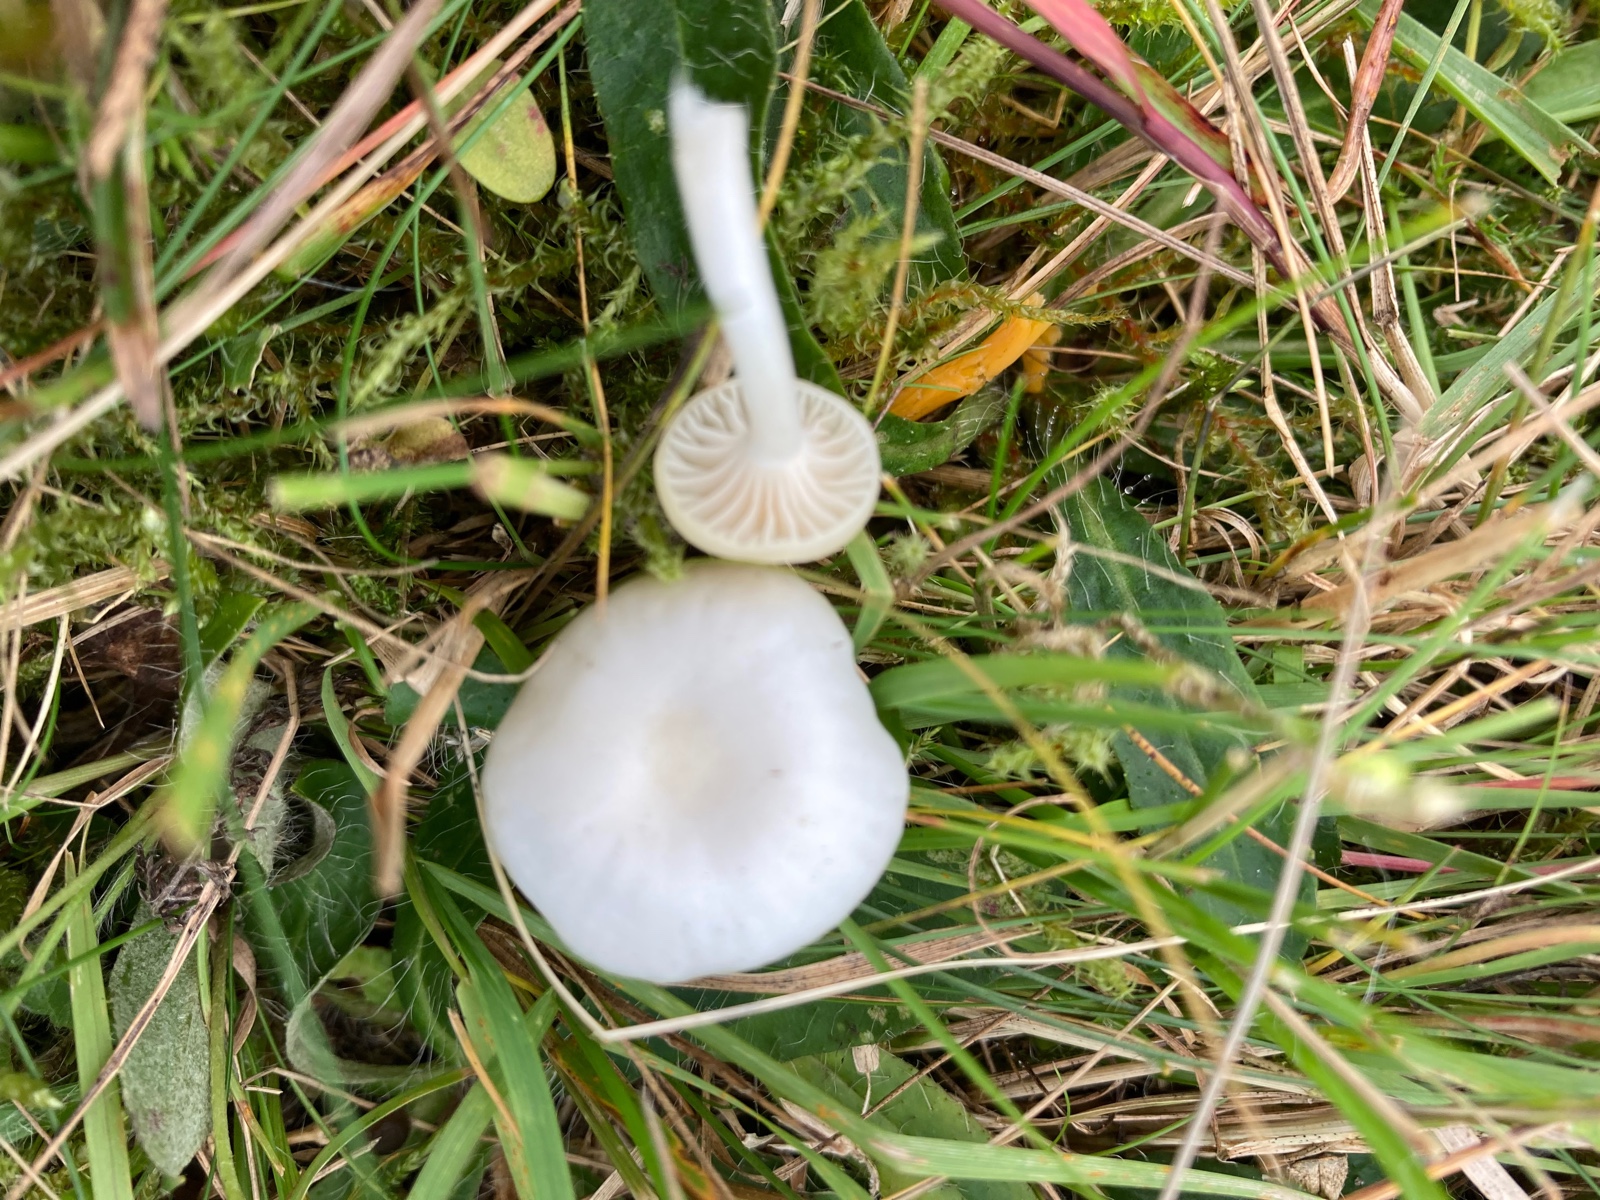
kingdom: Fungi
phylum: Basidiomycota
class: Agaricomycetes
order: Agaricales
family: Hygrophoraceae
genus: Cuphophyllus
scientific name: Cuphophyllus
